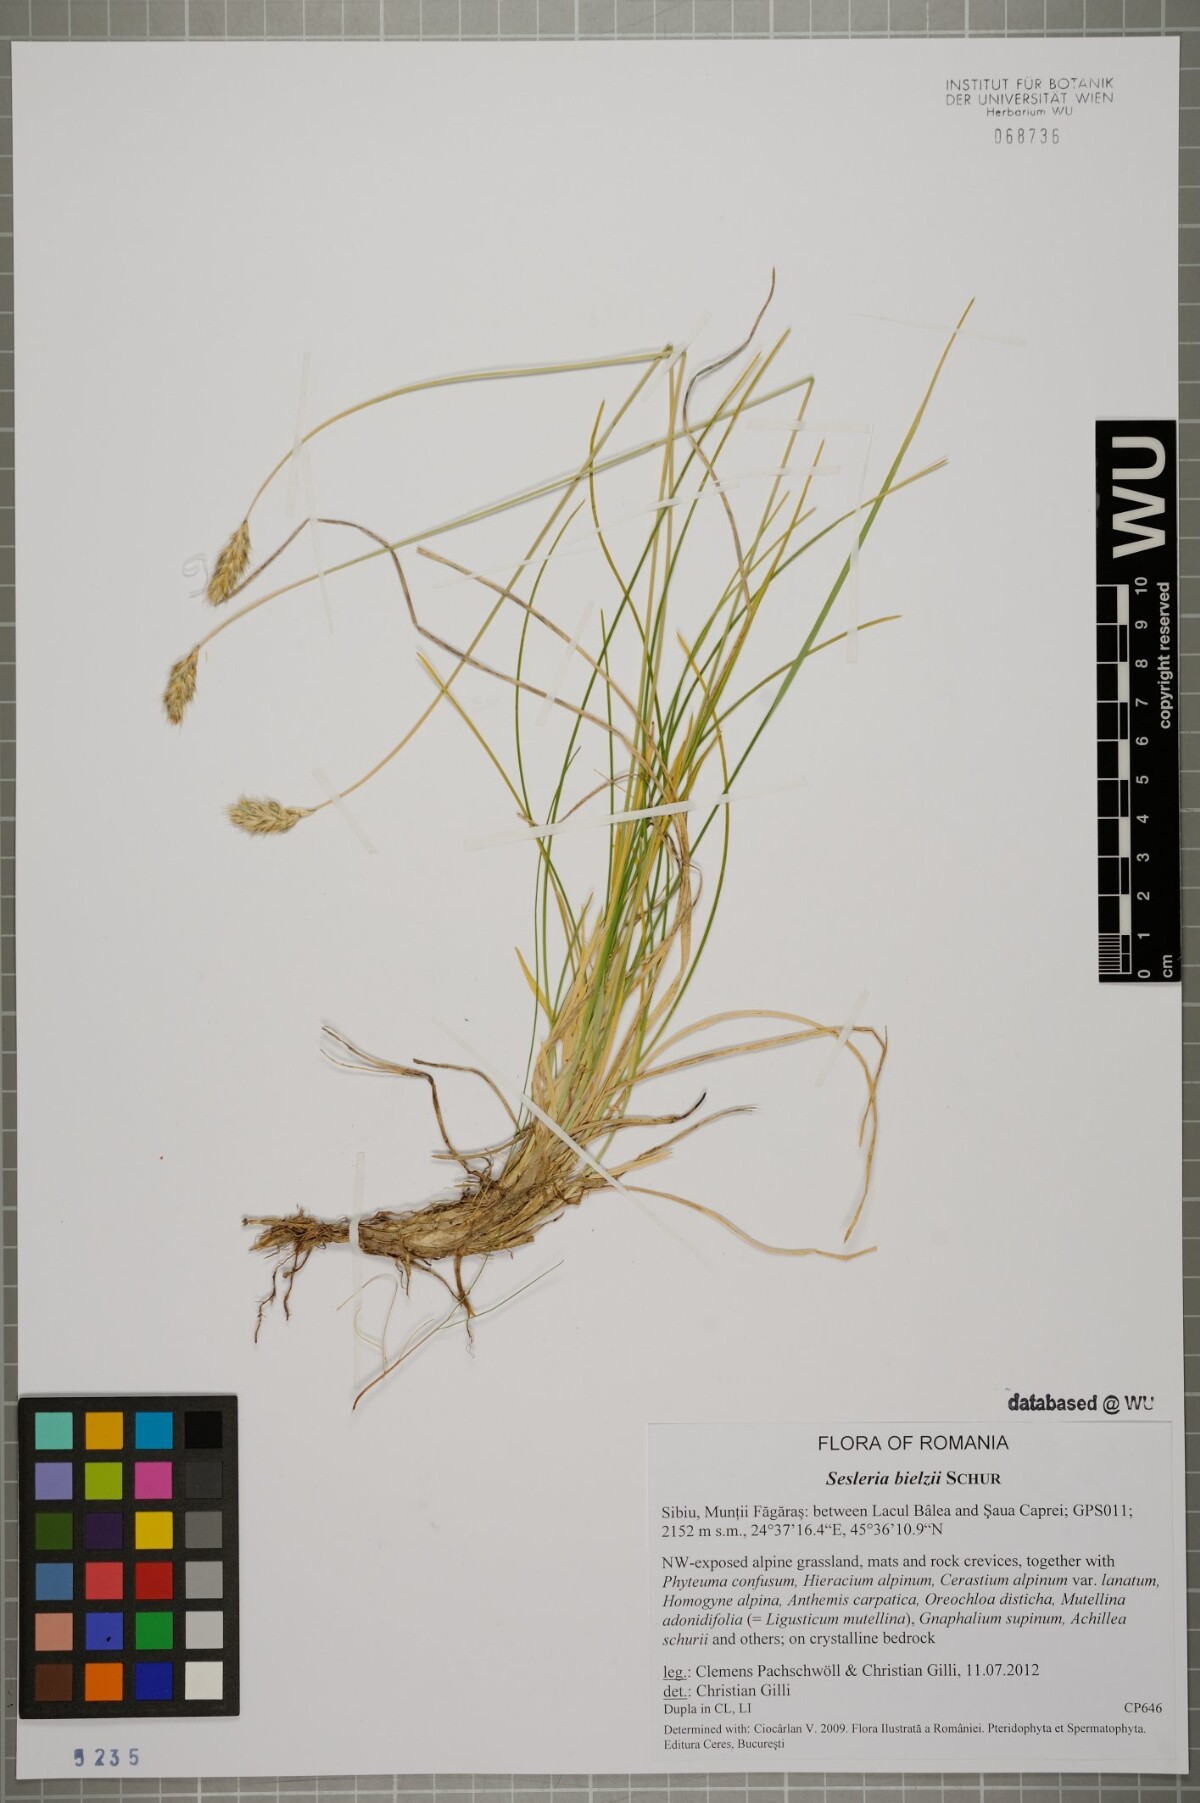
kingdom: Plantae
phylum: Tracheophyta
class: Liliopsida
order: Poales
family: Poaceae
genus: Sesleria
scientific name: Sesleria bielzii
